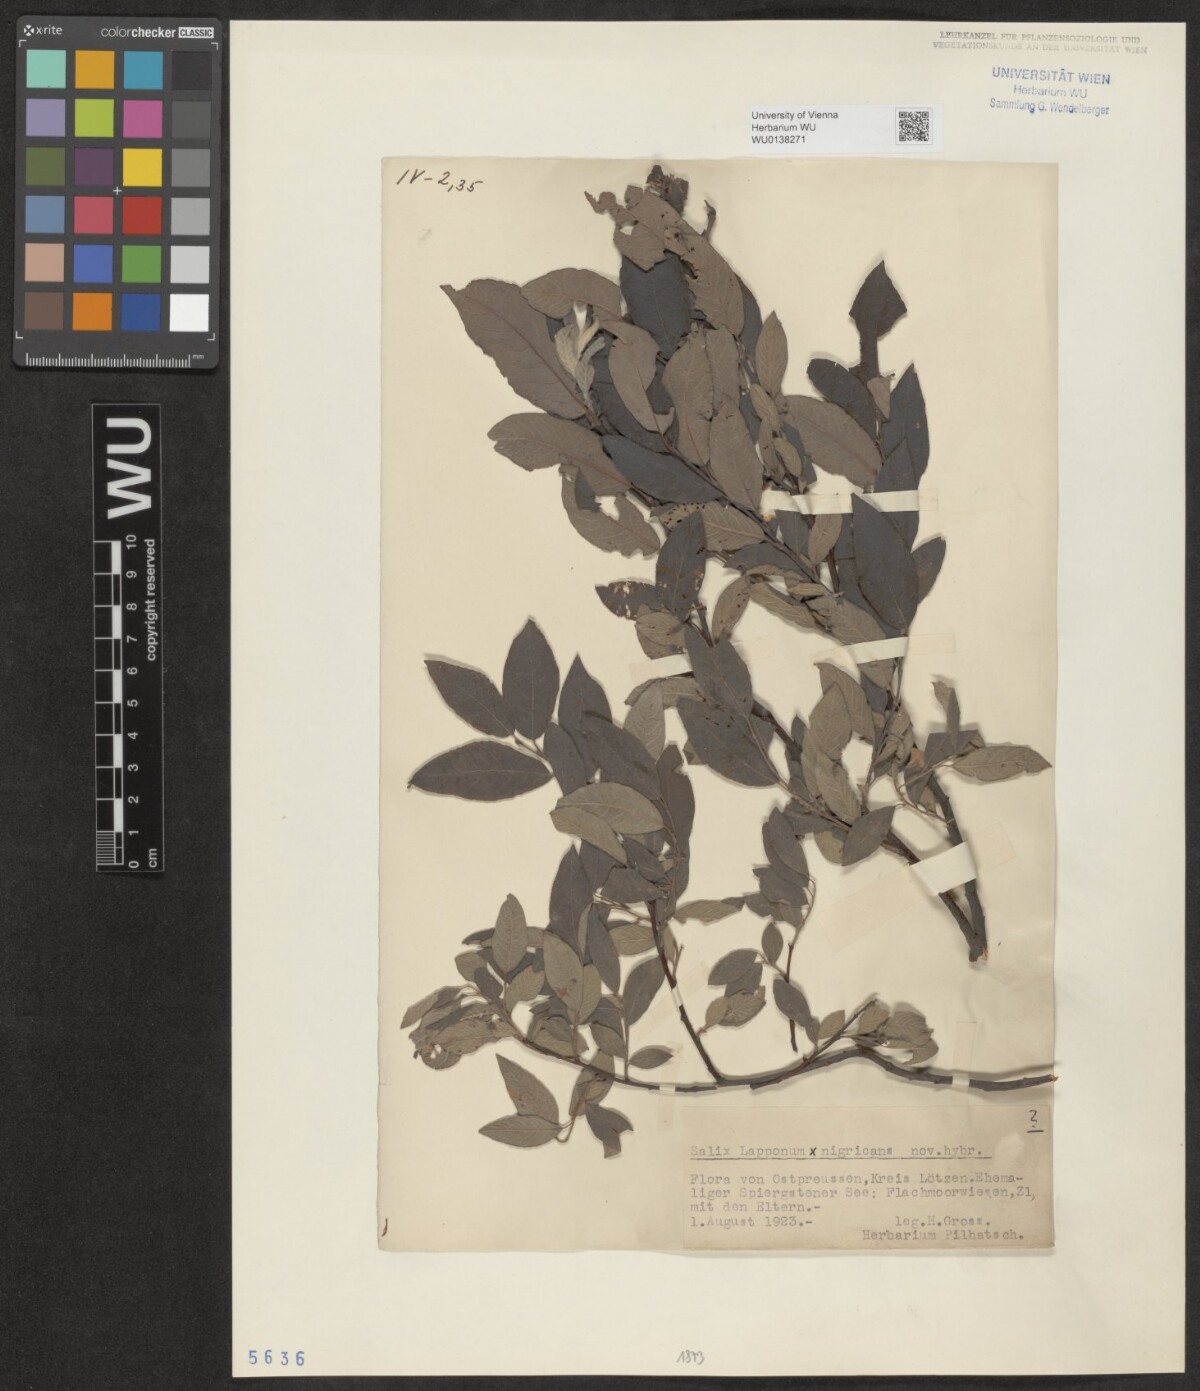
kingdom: Plantae
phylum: Tracheophyta
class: Magnoliopsida
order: Malpighiales
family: Salicaceae
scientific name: Salicaceae
